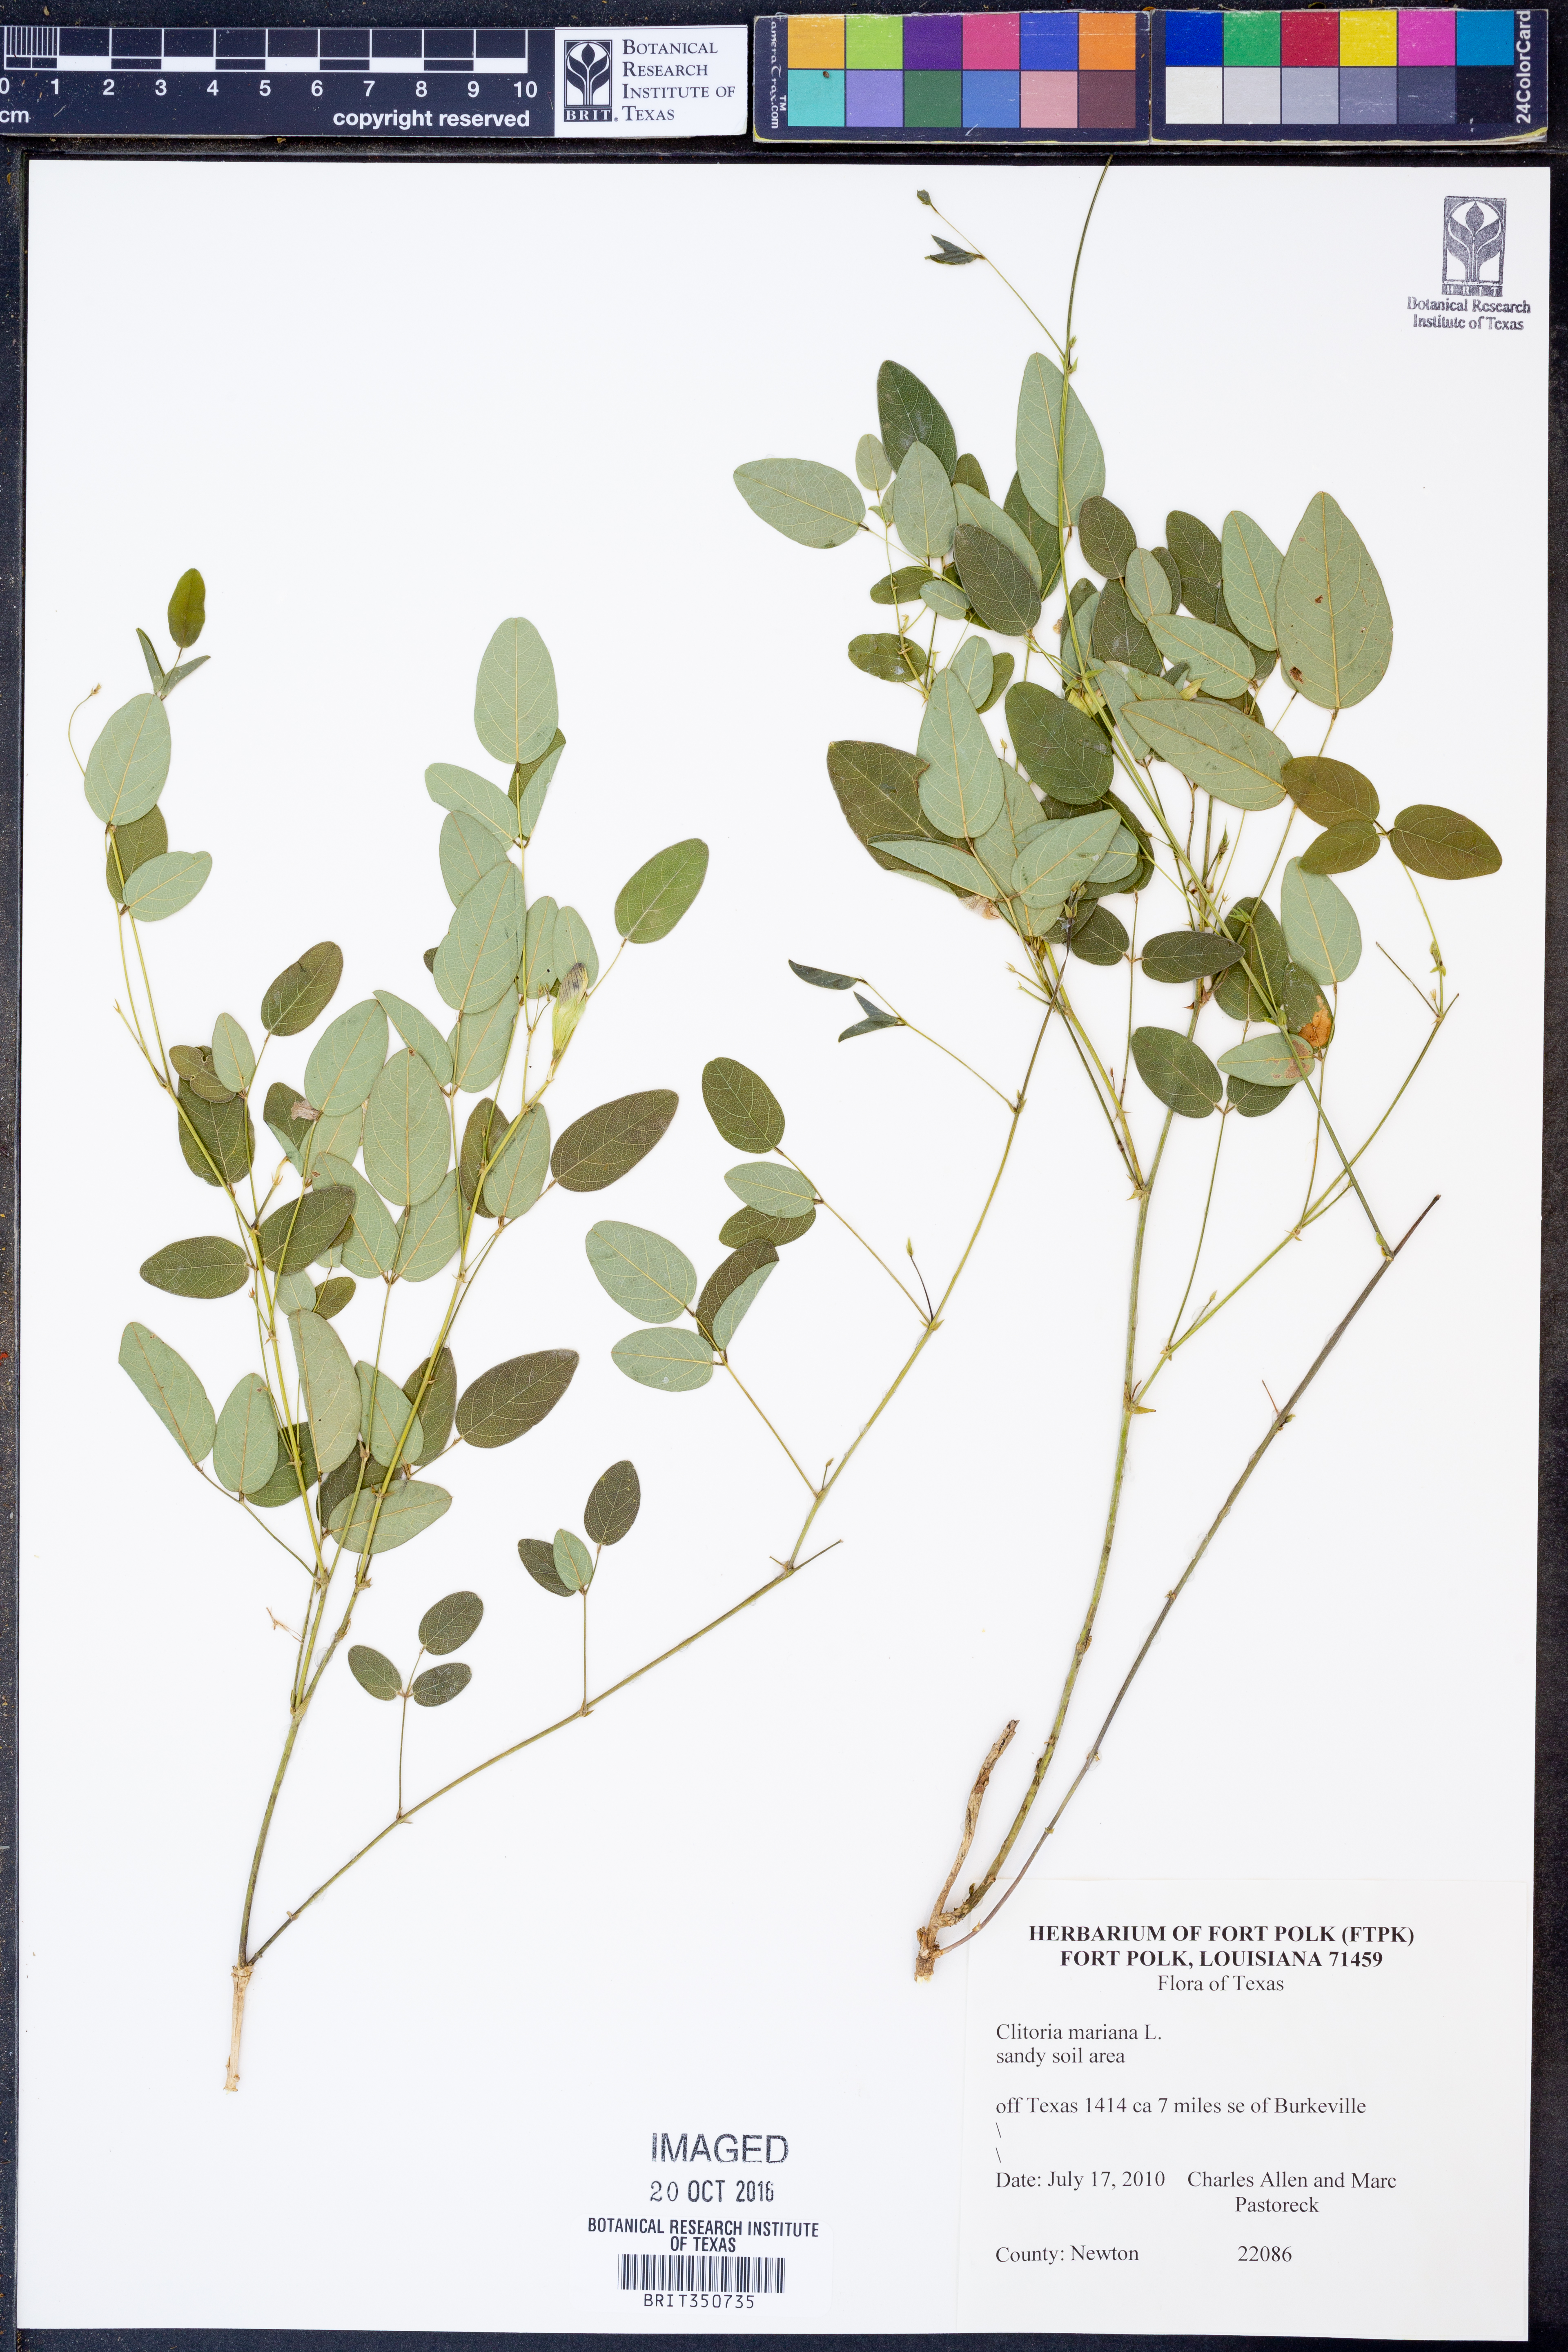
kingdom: Plantae
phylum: Tracheophyta
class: Magnoliopsida
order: Fabales
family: Fabaceae
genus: Clitoria
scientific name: Clitoria mariana
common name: Butterfly-pea
